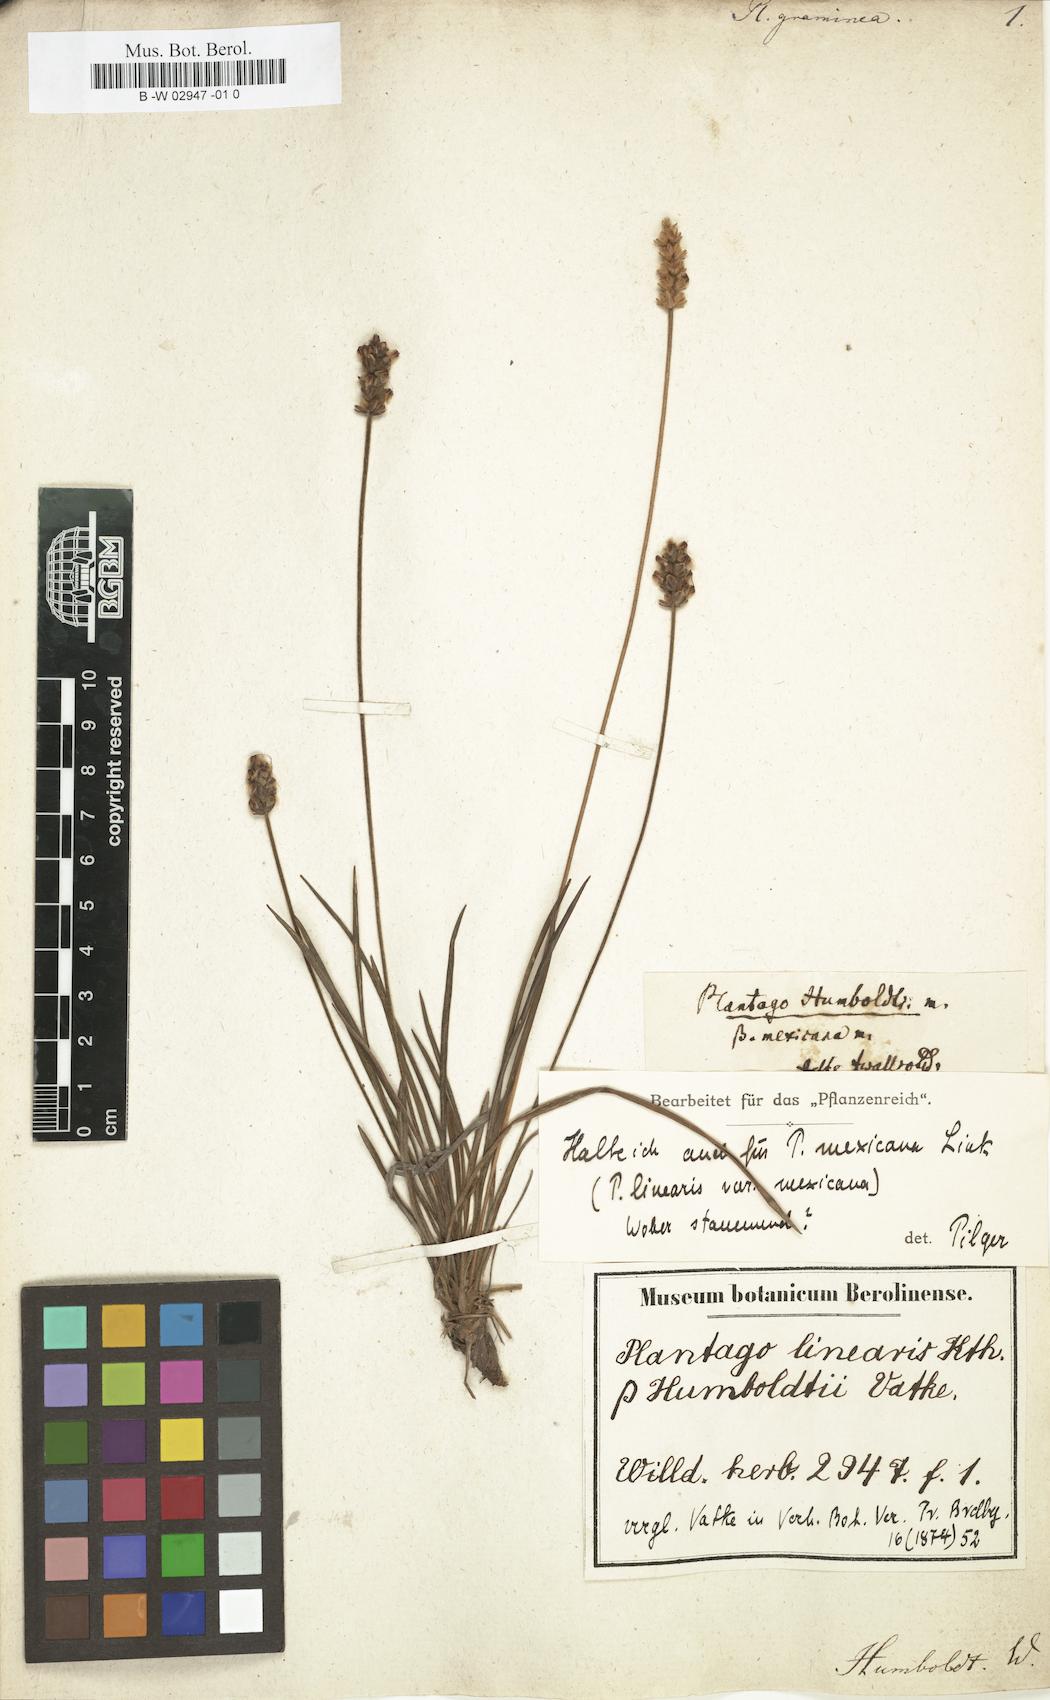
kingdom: Plantae
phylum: Tracheophyta
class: Magnoliopsida
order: Lamiales
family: Plantaginaceae
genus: Plantago
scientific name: Plantago
